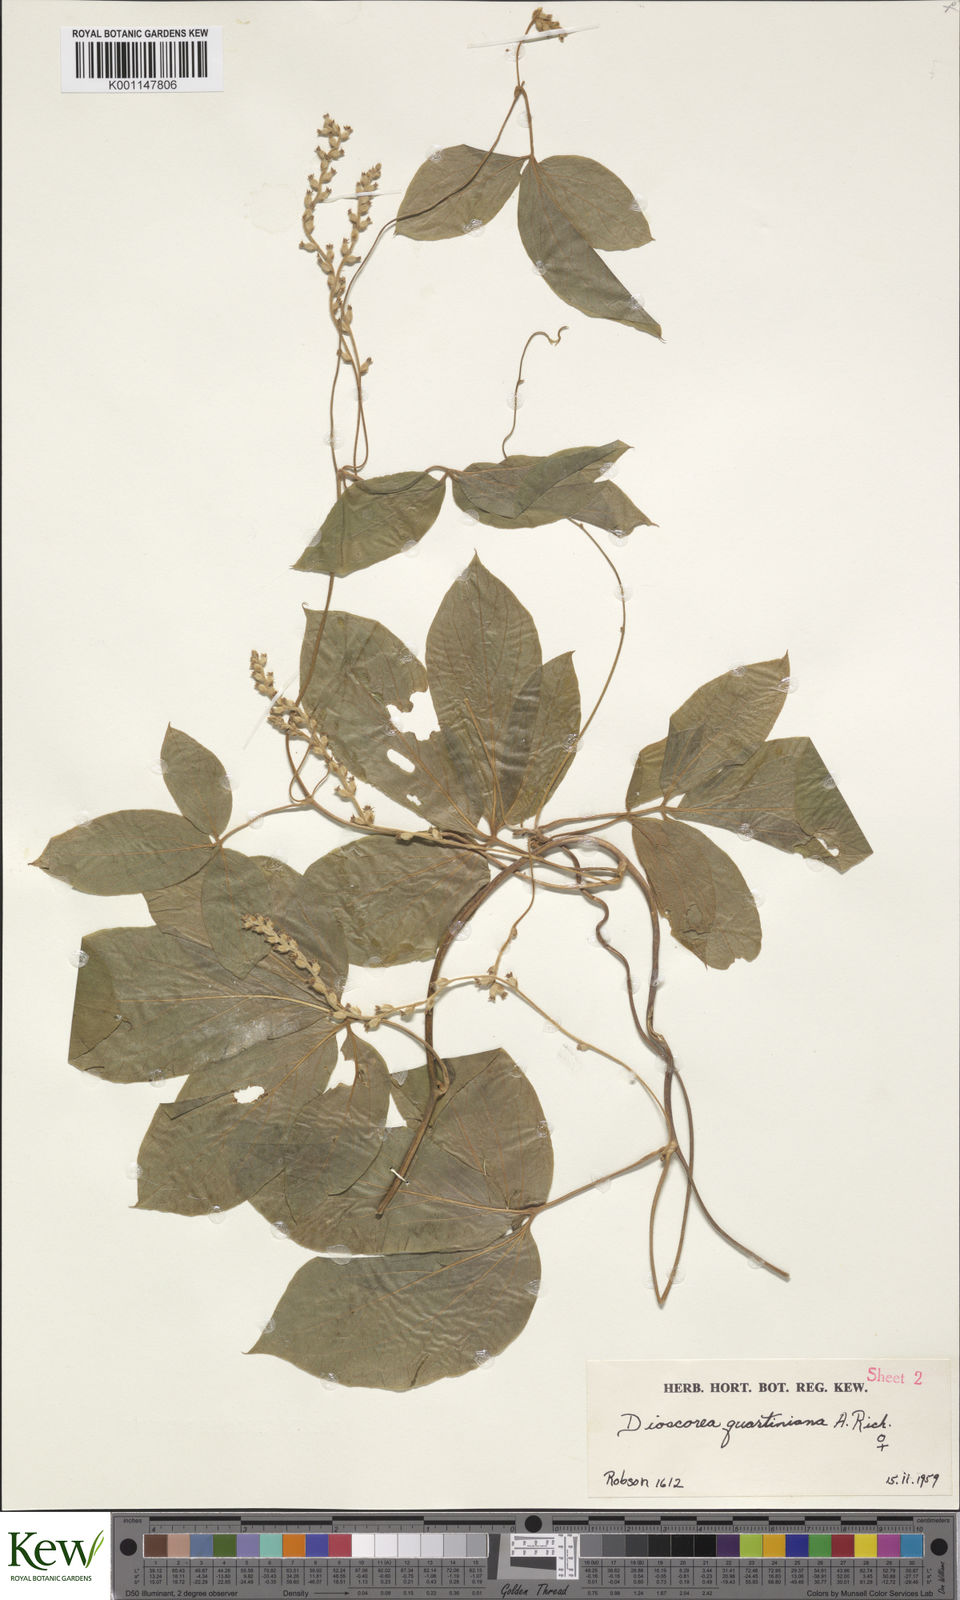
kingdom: Plantae
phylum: Tracheophyta
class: Liliopsida
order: Dioscoreales
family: Dioscoreaceae
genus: Dioscorea
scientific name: Dioscorea quartiniana
